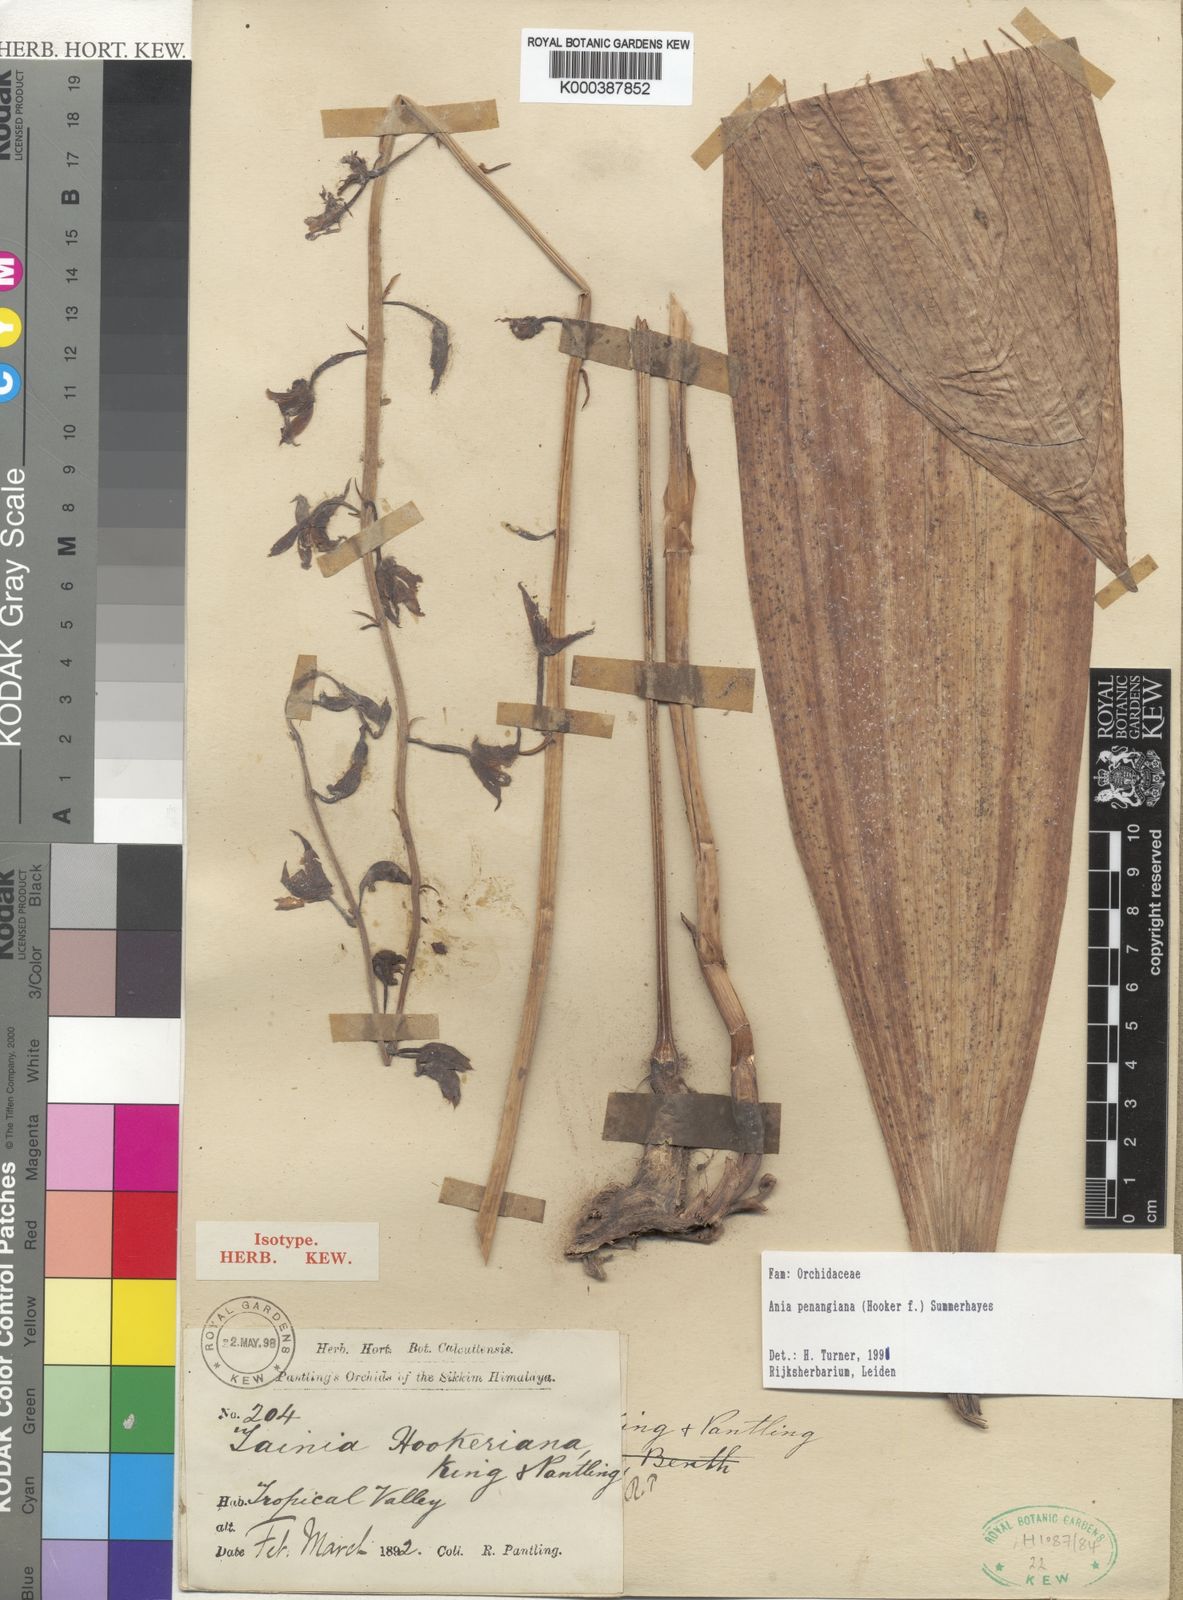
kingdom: Plantae
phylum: Tracheophyta
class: Liliopsida
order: Asparagales
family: Orchidaceae
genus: Ania
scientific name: Ania penangiana
